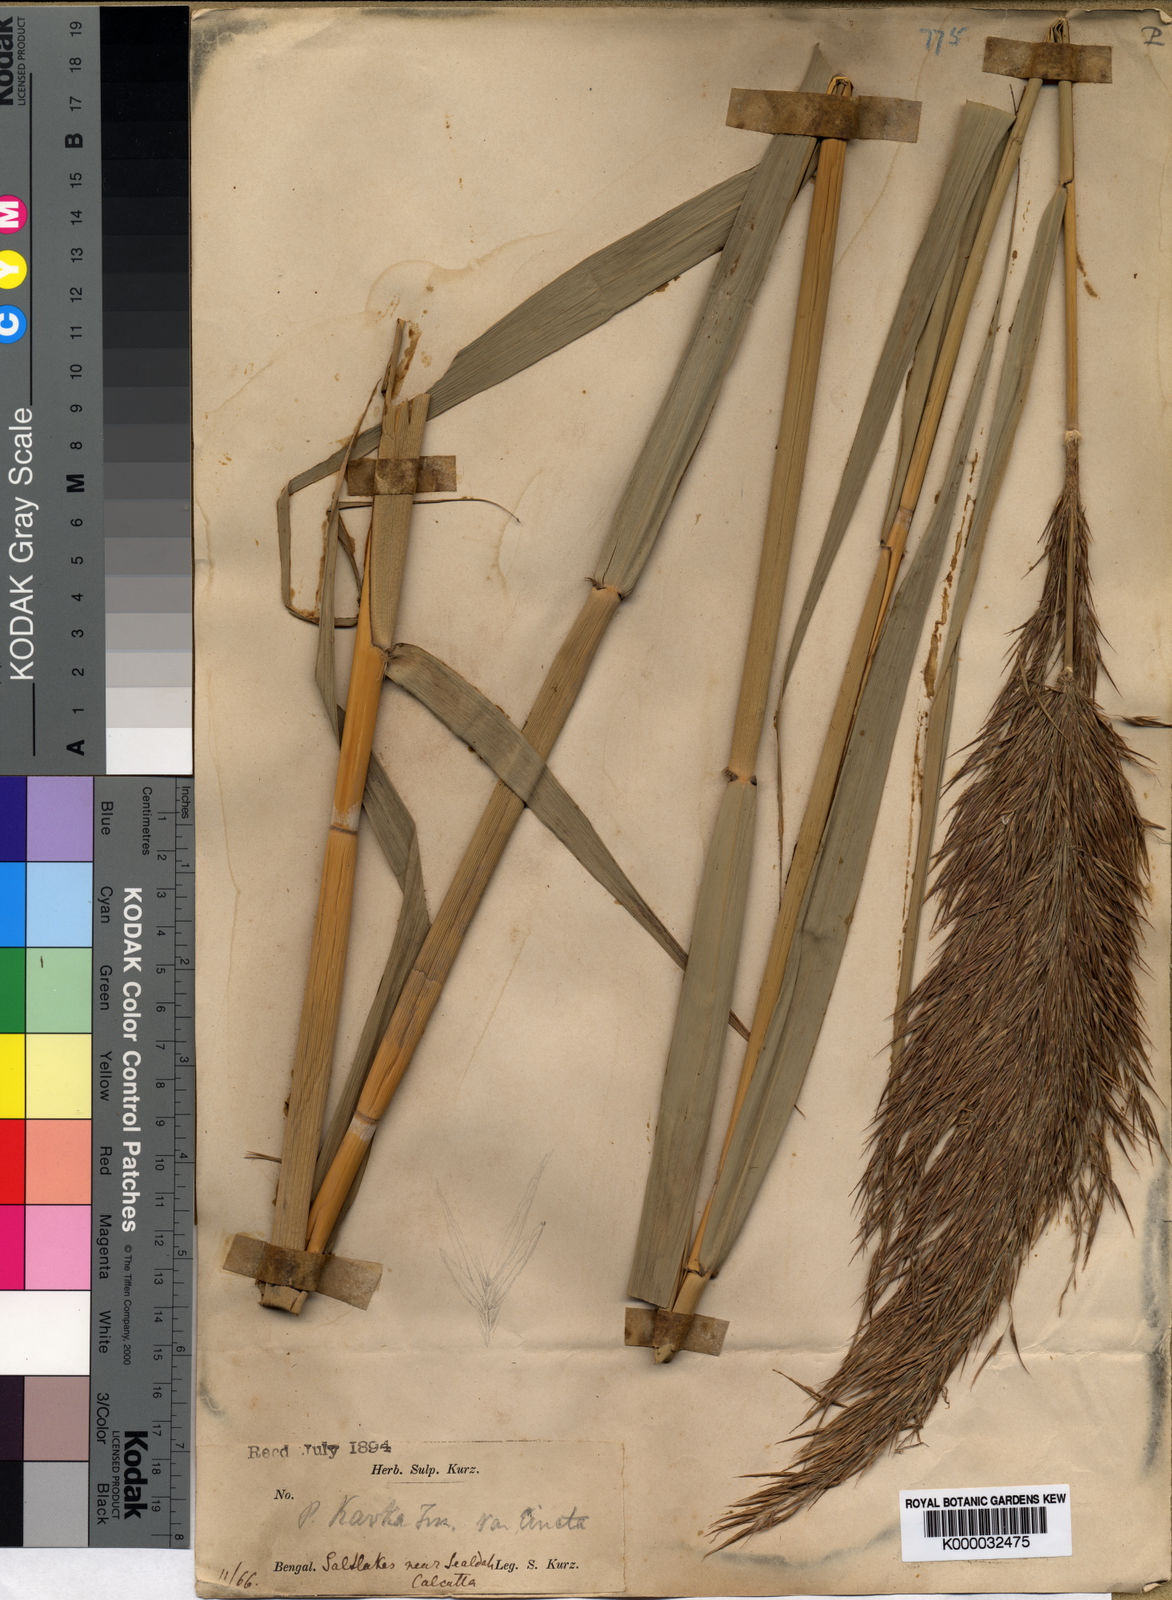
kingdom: Plantae
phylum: Tracheophyta
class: Liliopsida
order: Poales
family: Poaceae
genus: Phragmites
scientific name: Phragmites karka
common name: Tropical reed
